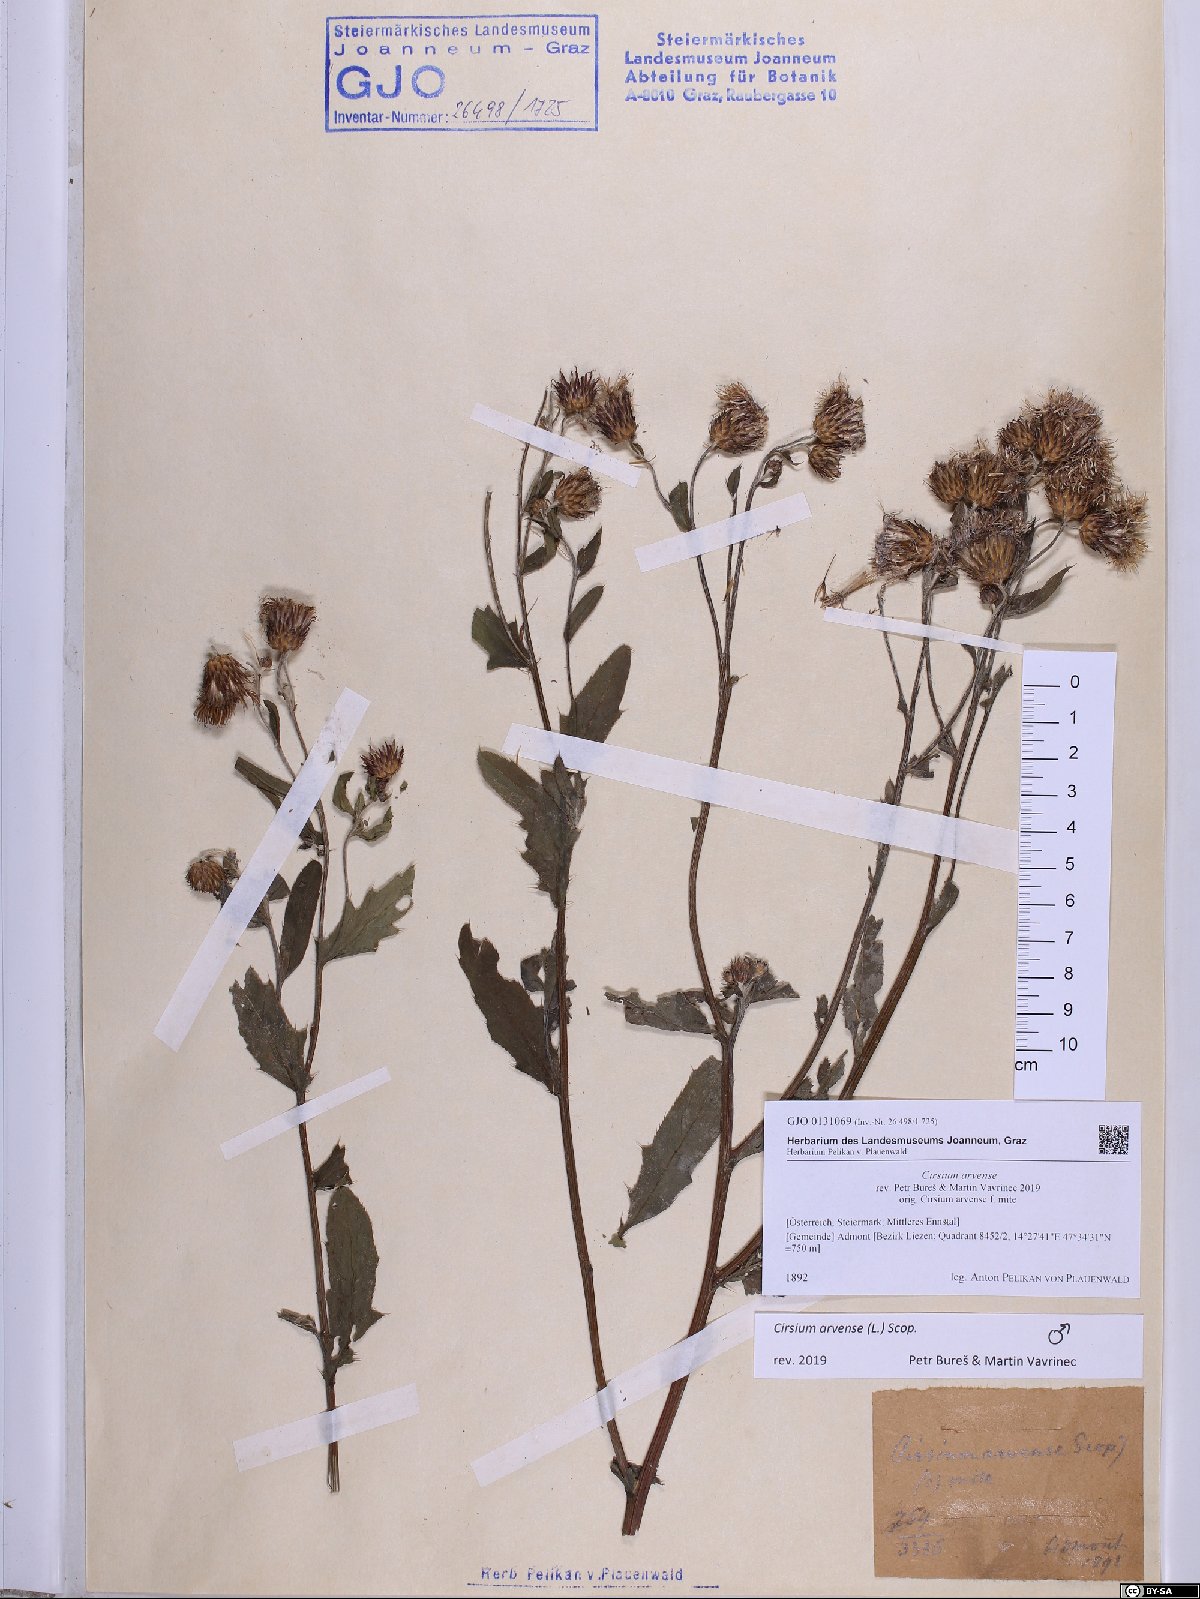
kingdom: Plantae
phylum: Tracheophyta
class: Magnoliopsida
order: Asterales
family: Asteraceae
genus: Cirsium
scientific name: Cirsium arvense
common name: Creeping thistle
